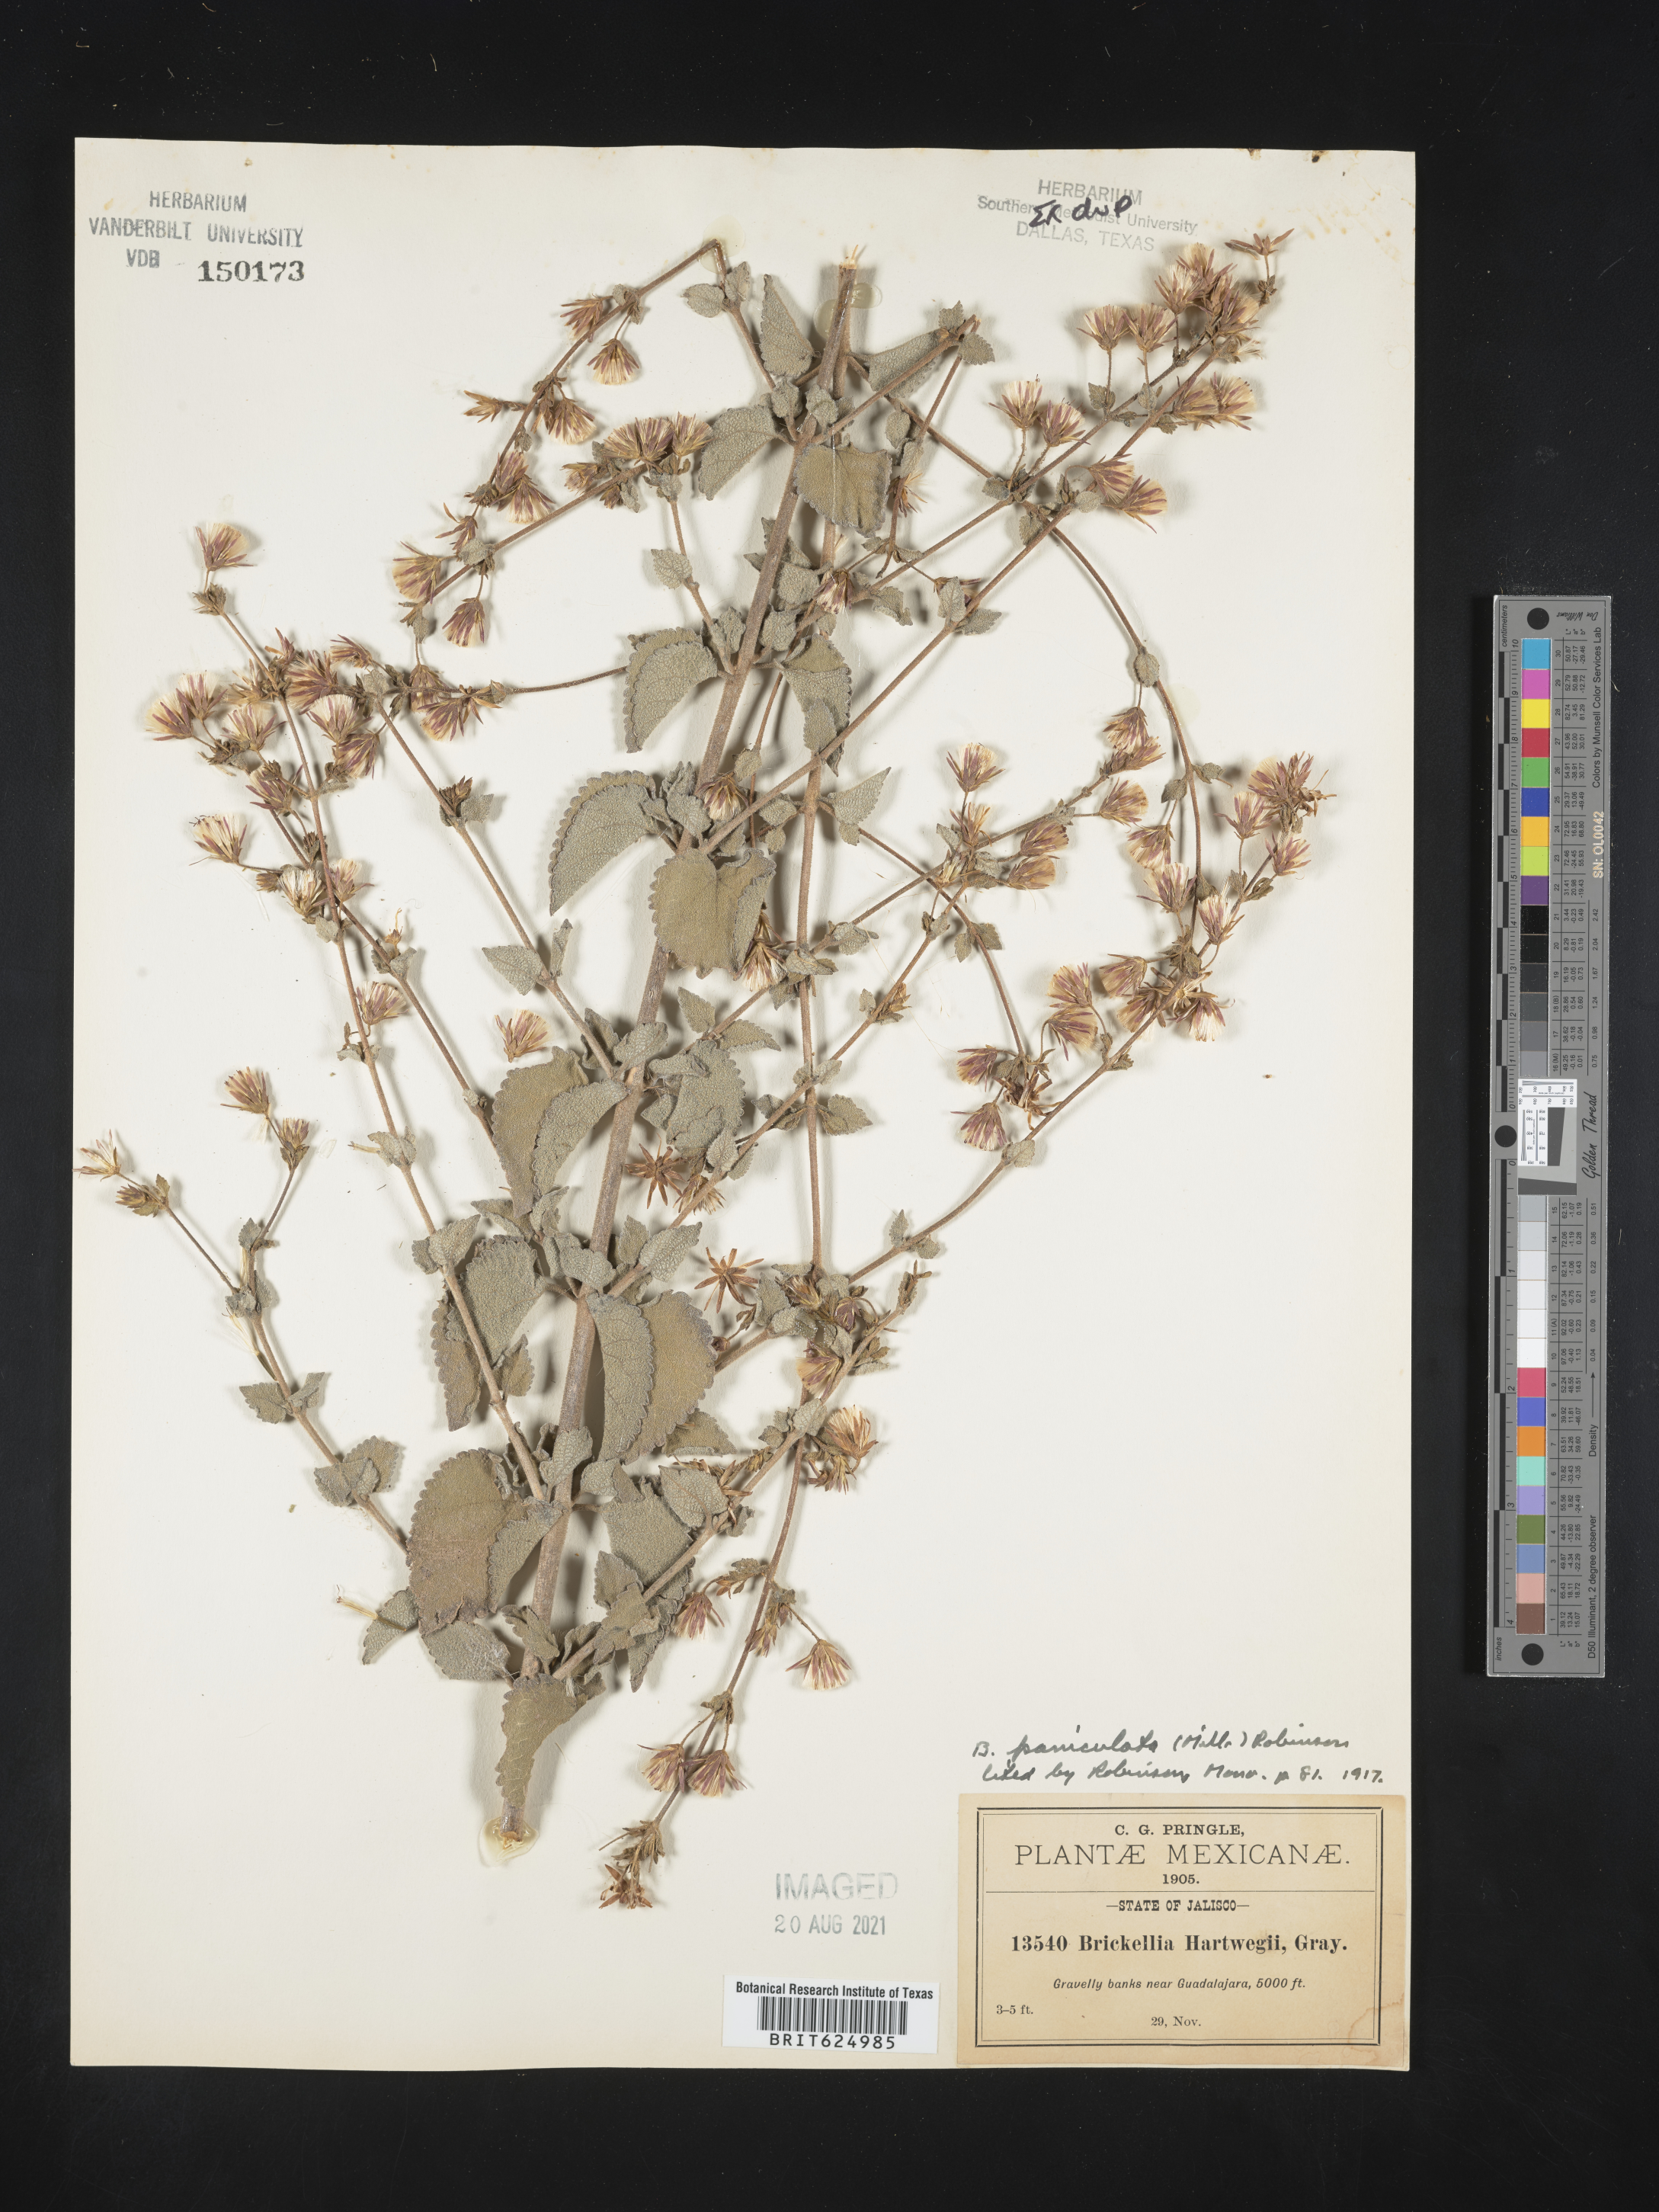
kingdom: Plantae
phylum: Tracheophyta
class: Magnoliopsida
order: Asterales
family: Asteraceae
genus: Brickellia
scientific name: Brickellia
